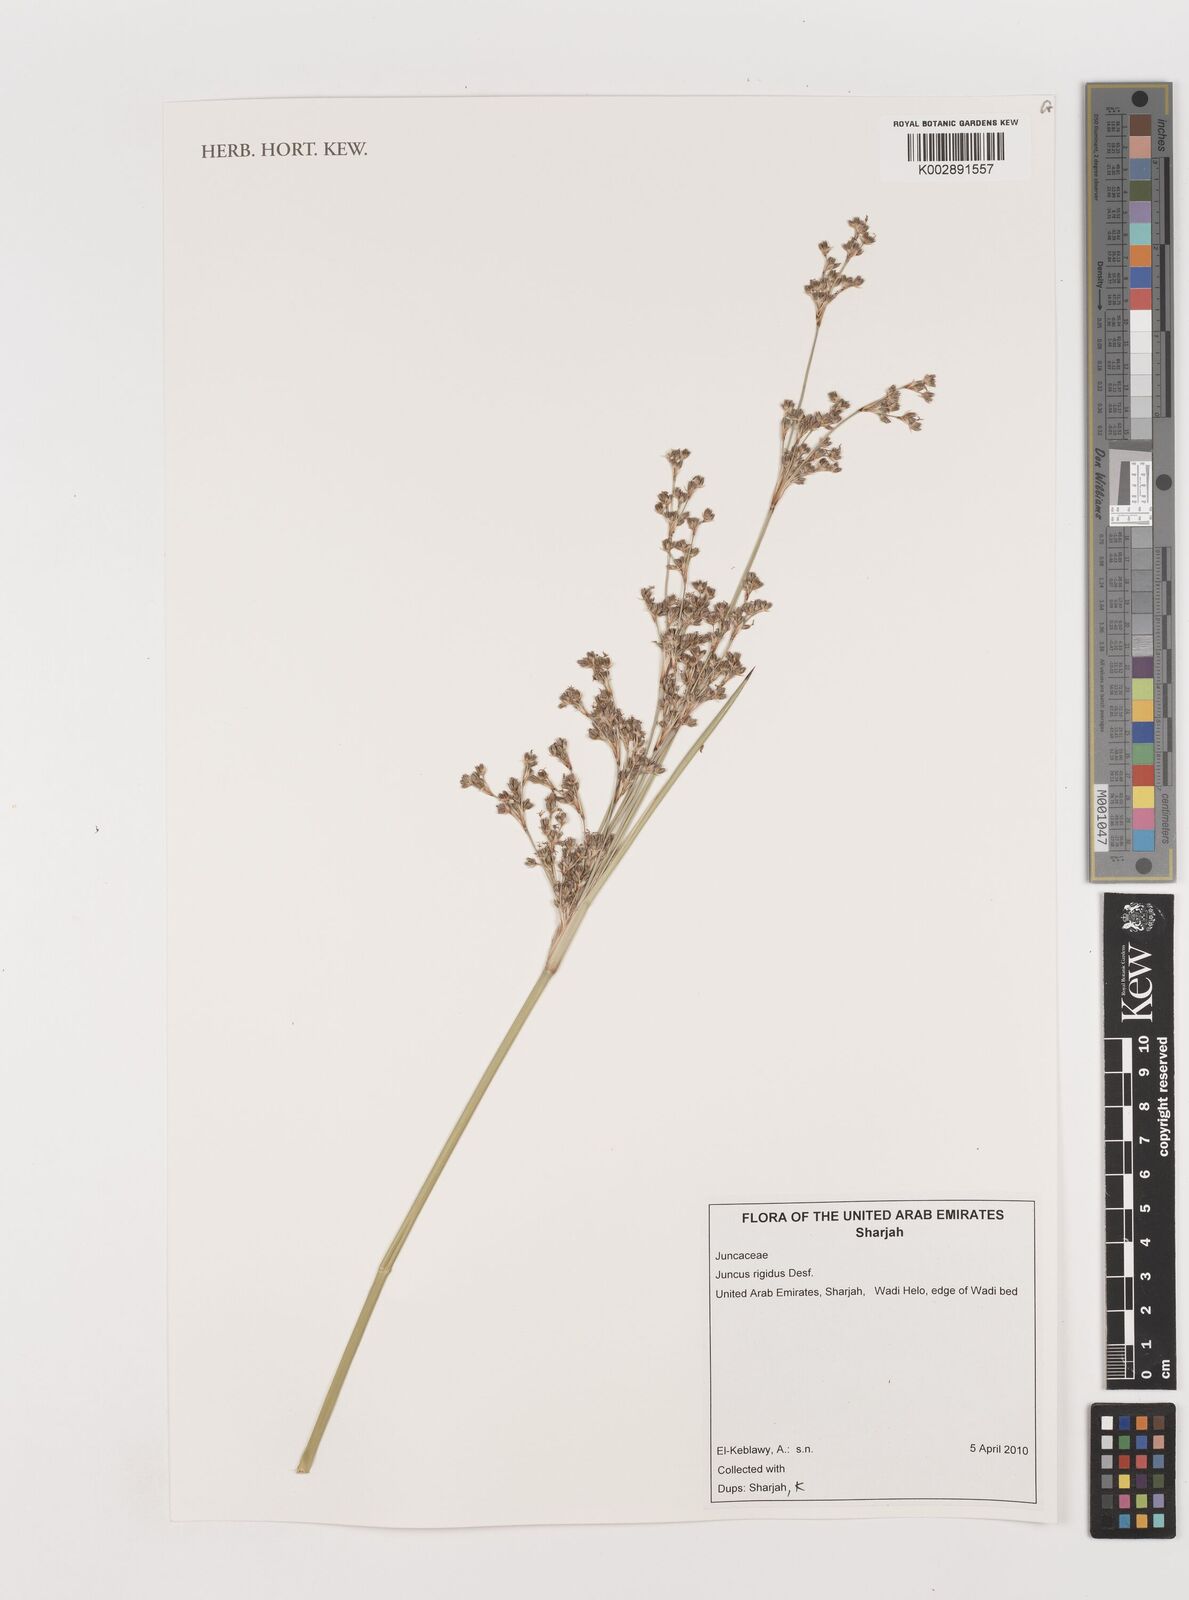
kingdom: Plantae
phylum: Tracheophyta
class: Liliopsida
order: Poales
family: Juncaceae
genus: Juncus
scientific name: Juncus rigidus
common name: Hard sea rush
